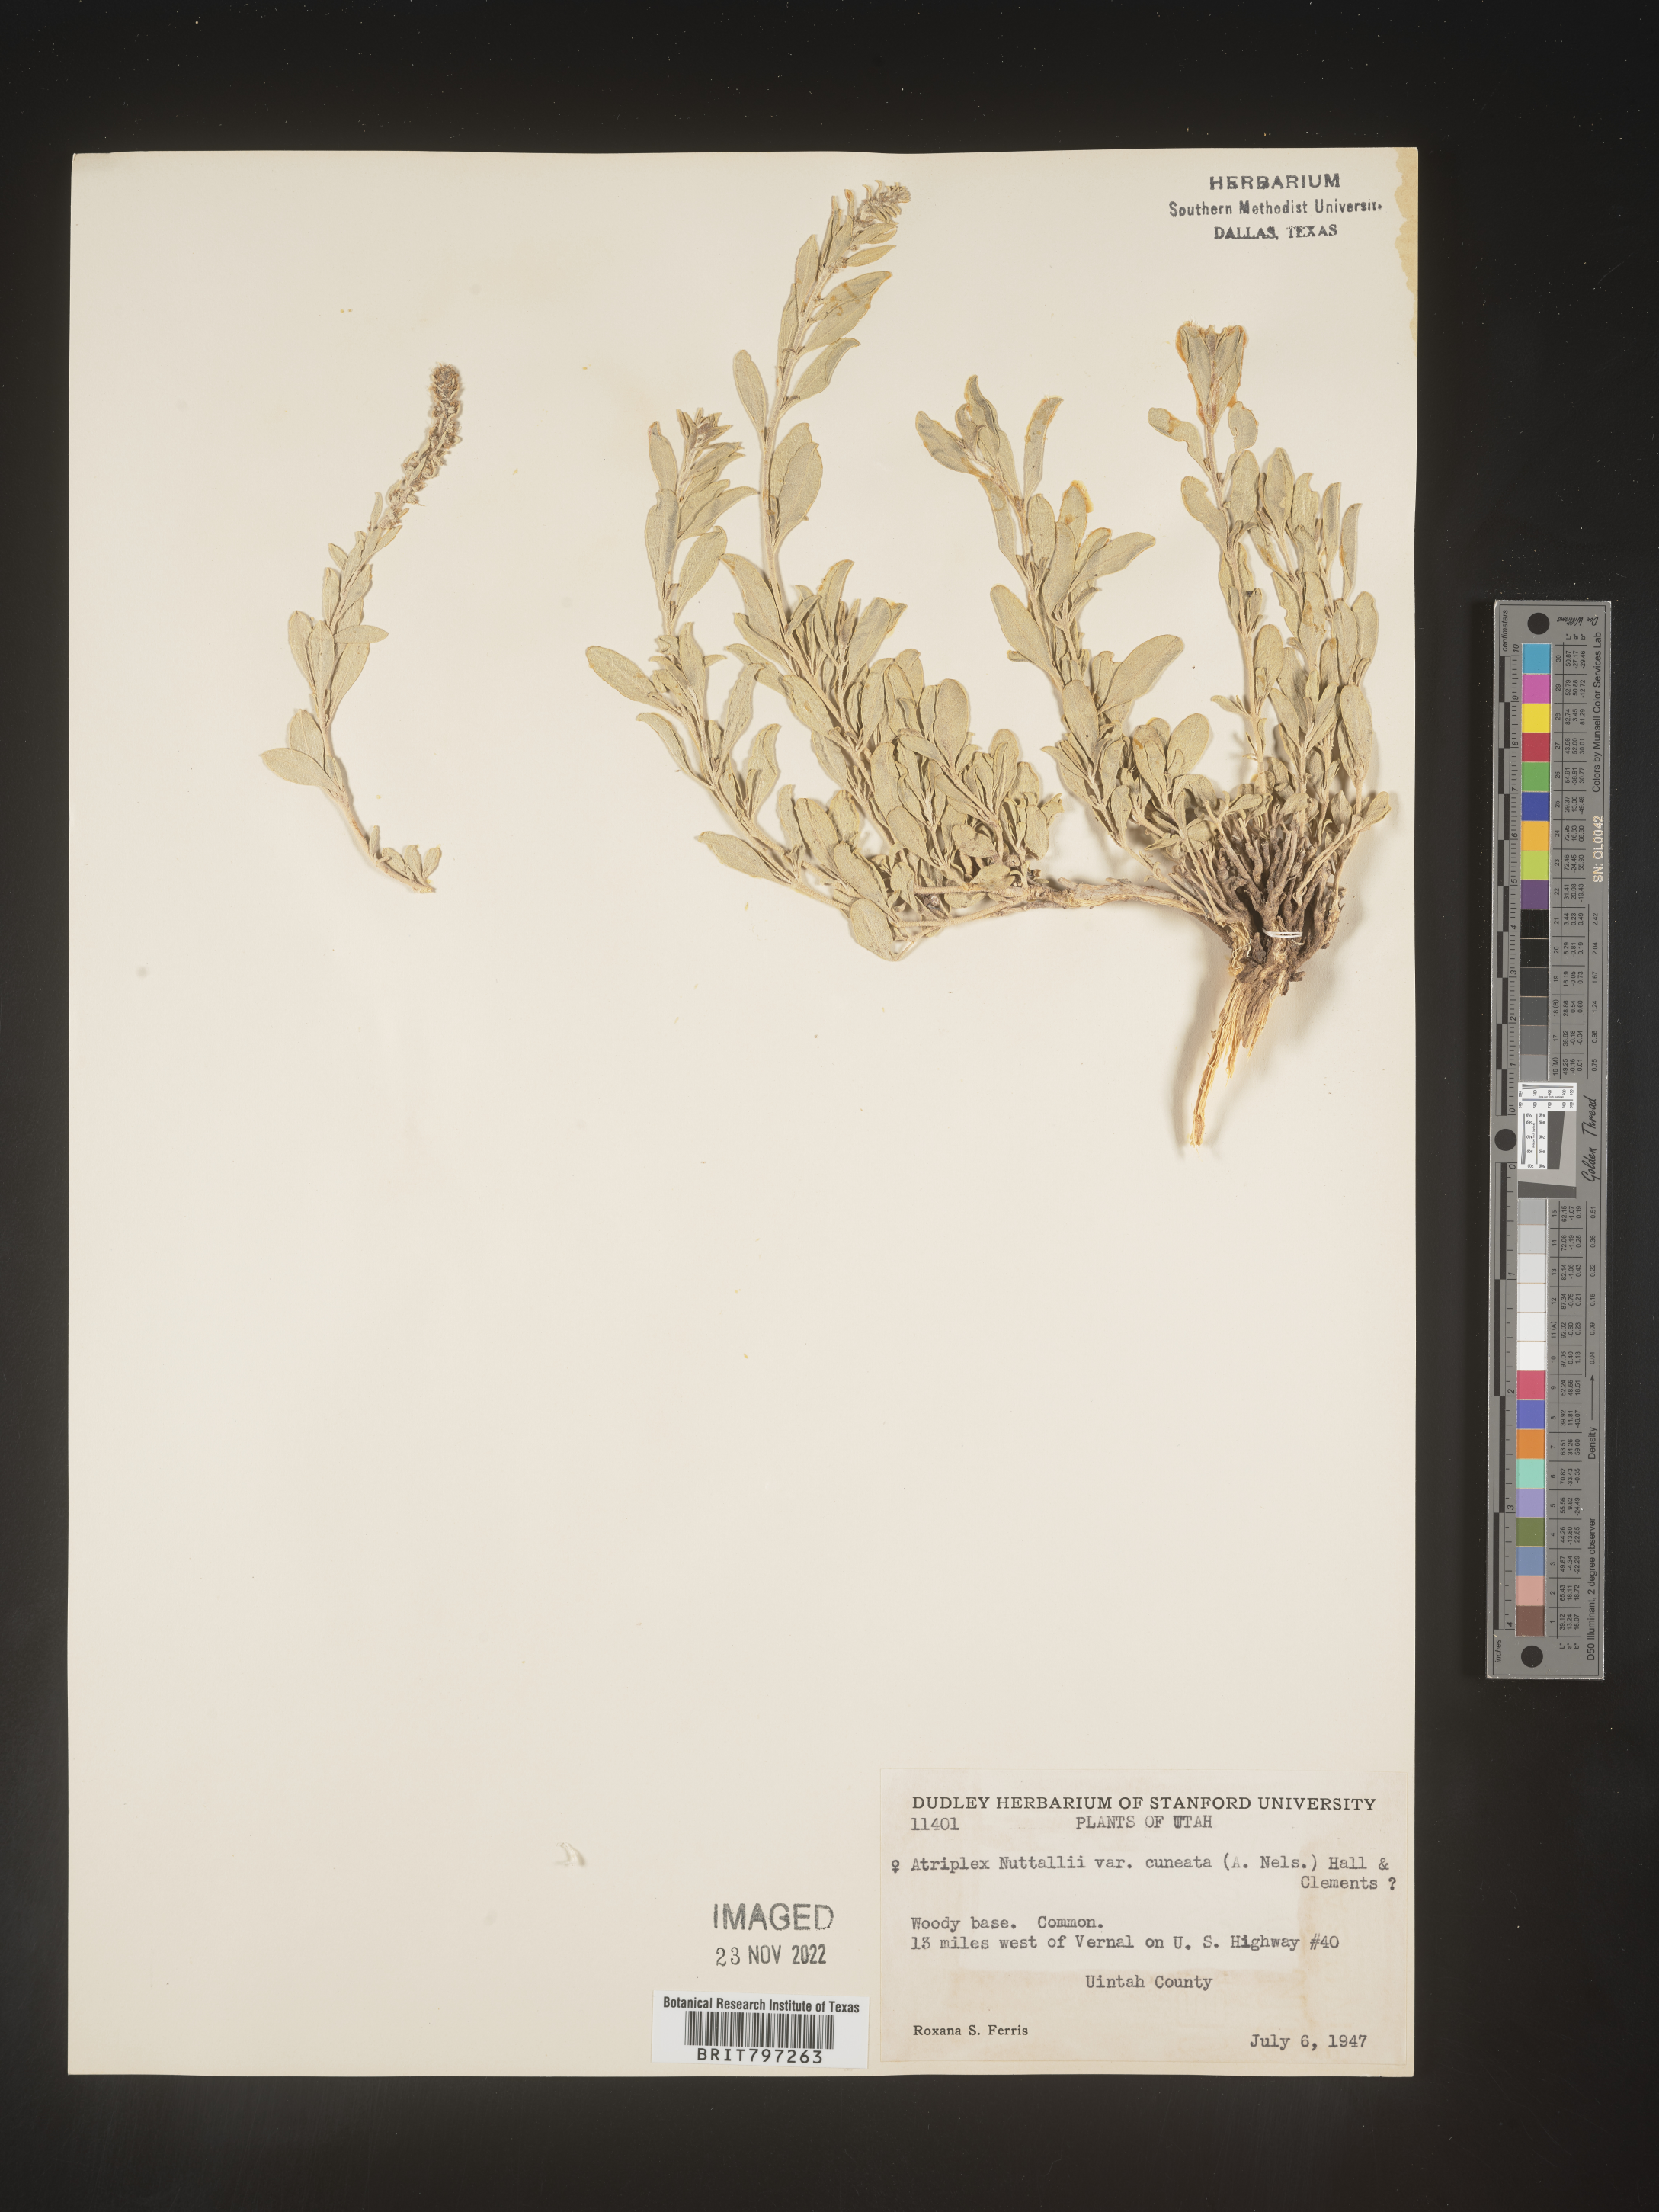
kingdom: Plantae
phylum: Tracheophyta
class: Magnoliopsida
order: Caryophyllales
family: Amaranthaceae
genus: Atriplex
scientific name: Atriplex
